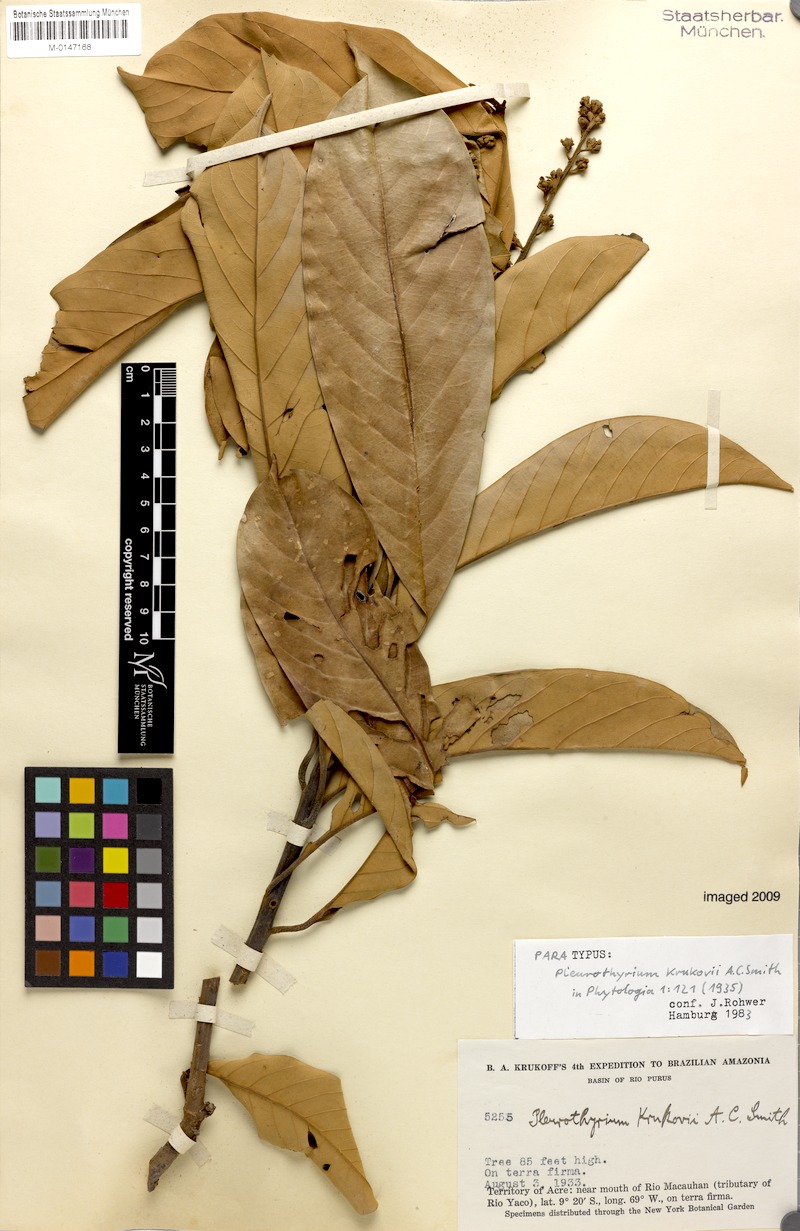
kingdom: Plantae
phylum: Tracheophyta
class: Magnoliopsida
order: Laurales
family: Lauraceae
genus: Pleurothyrium
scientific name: Pleurothyrium poeppigii
